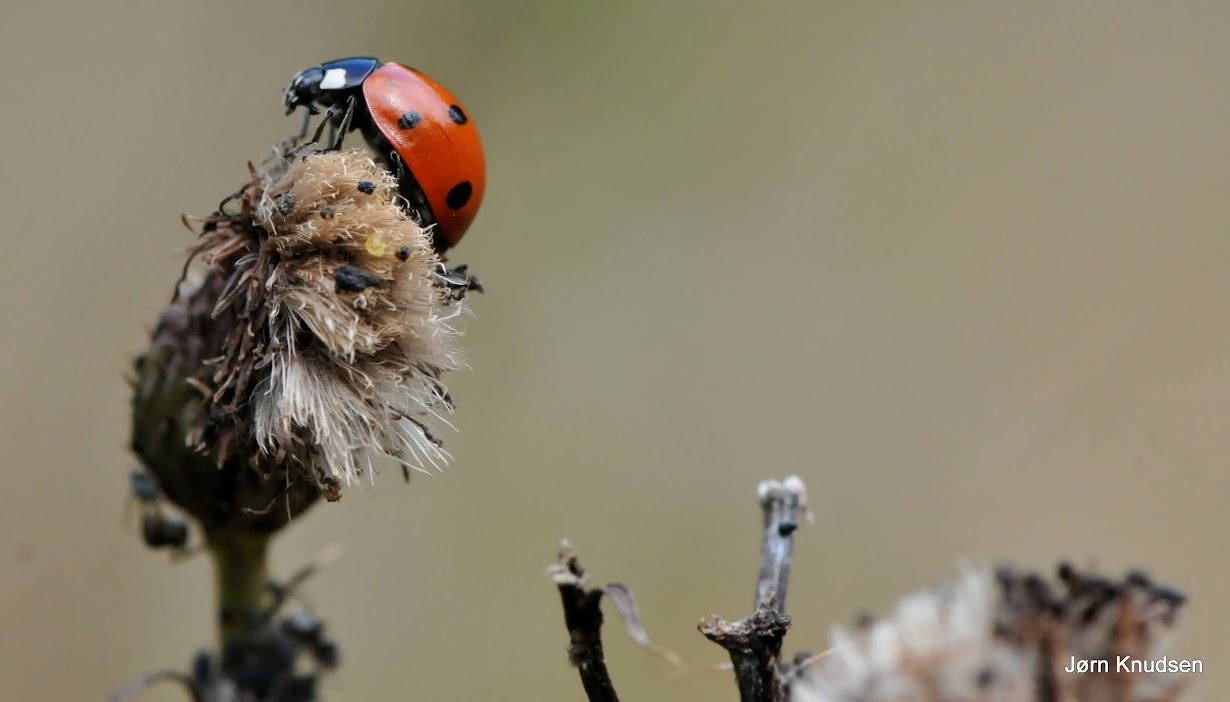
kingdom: Animalia
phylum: Arthropoda
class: Insecta
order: Coleoptera
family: Coccinellidae
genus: Coccinella
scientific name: Coccinella septempunctata
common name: Syvplettet mariehøne
